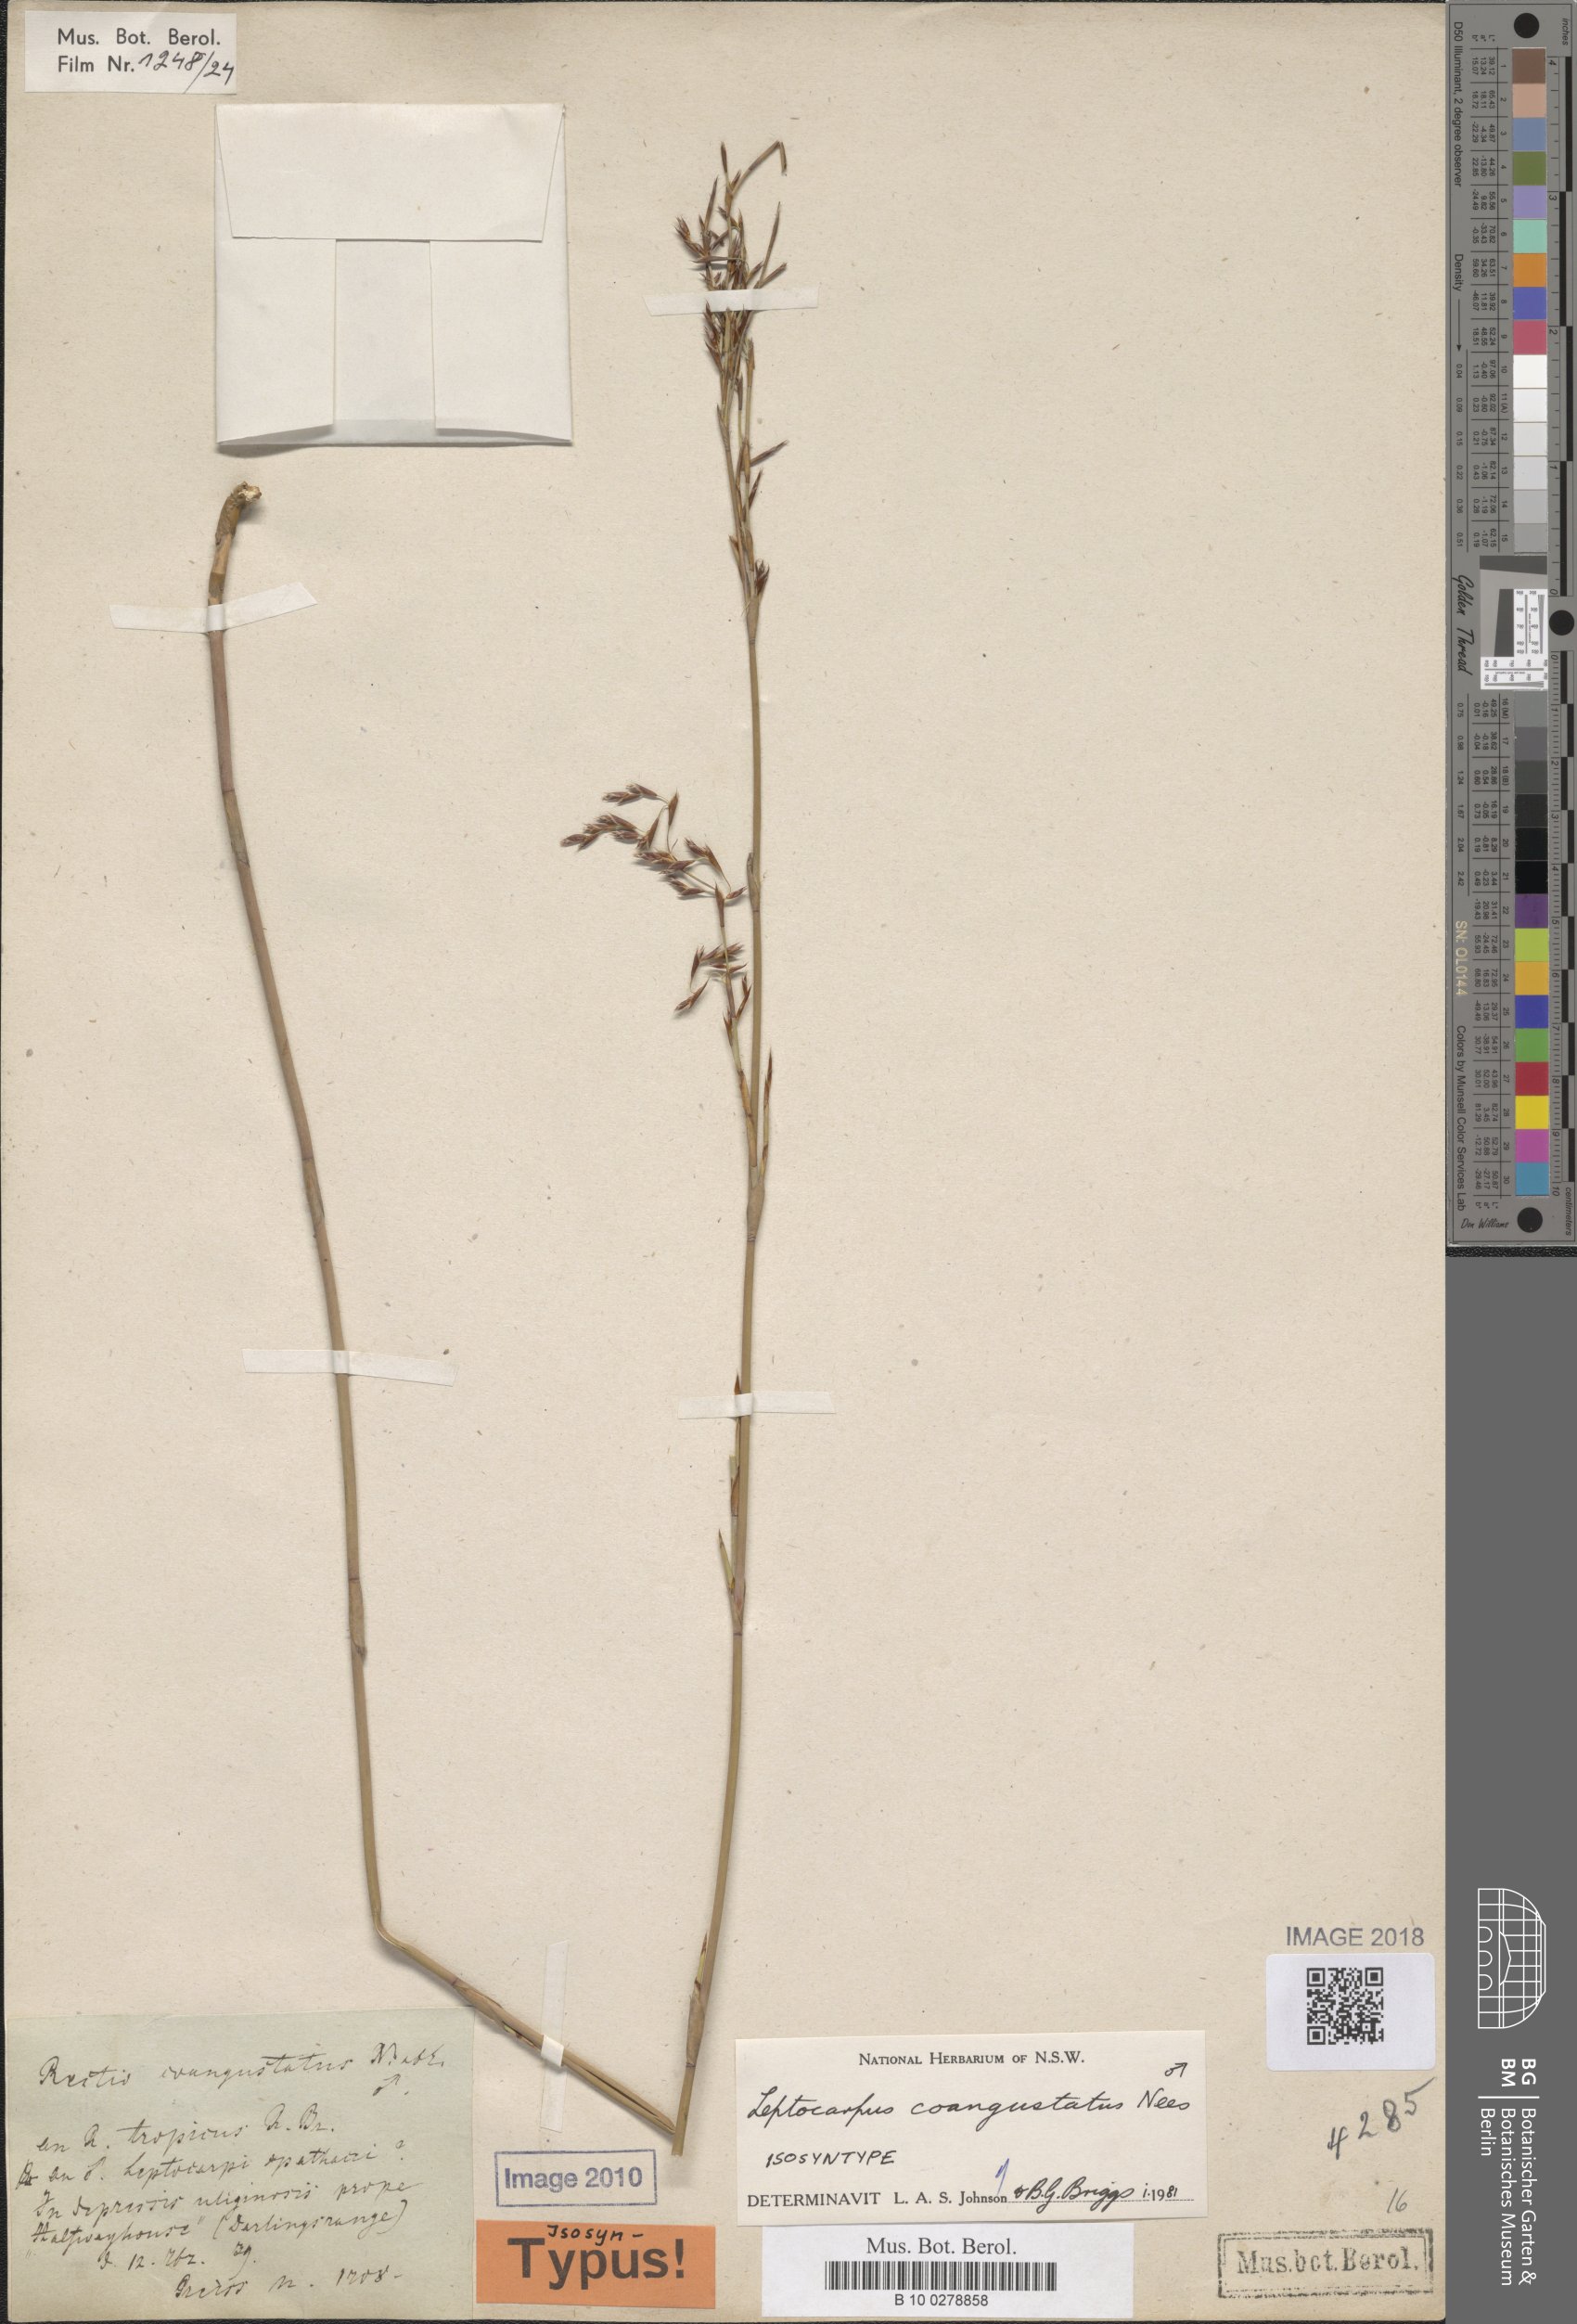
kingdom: Plantae
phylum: Tracheophyta
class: Liliopsida
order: Poales
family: Restionaceae
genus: Leptocarpus
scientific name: Leptocarpus coangustatus
